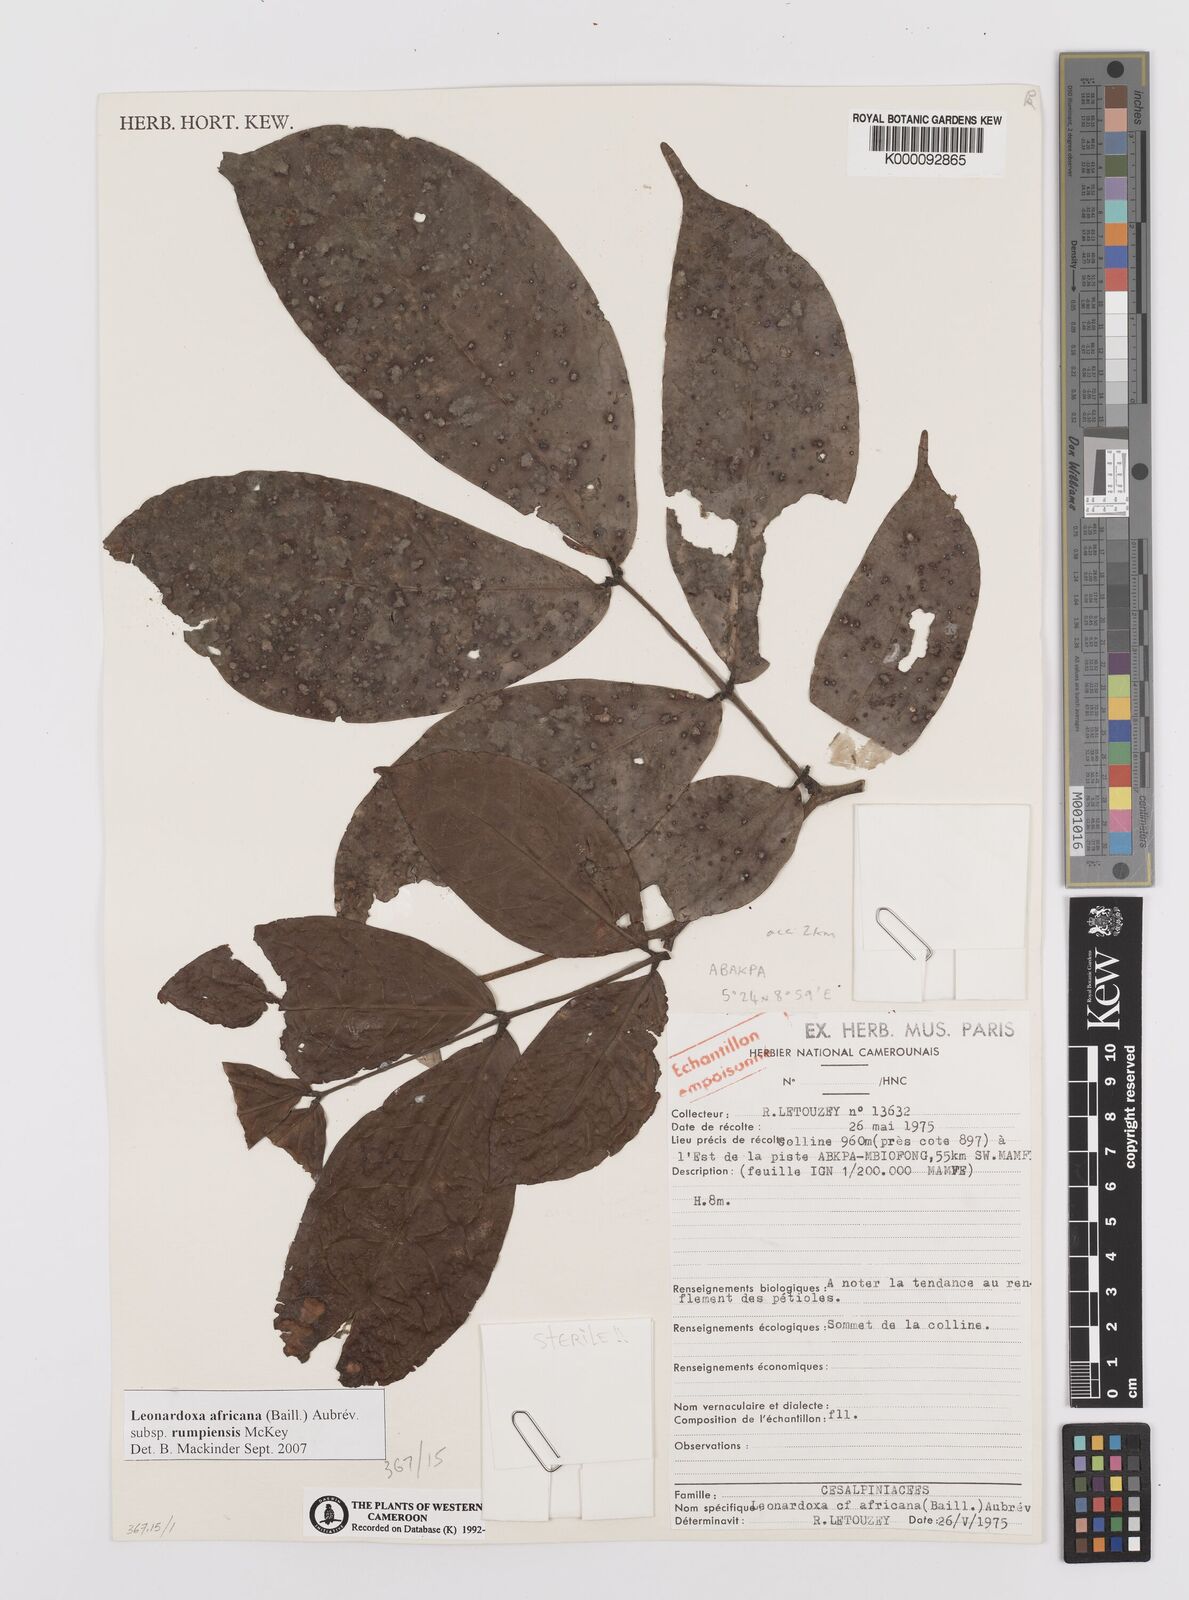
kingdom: Plantae
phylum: Tracheophyta
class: Magnoliopsida
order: Fabales
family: Fabaceae
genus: Leonardoxa
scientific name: Leonardoxa
